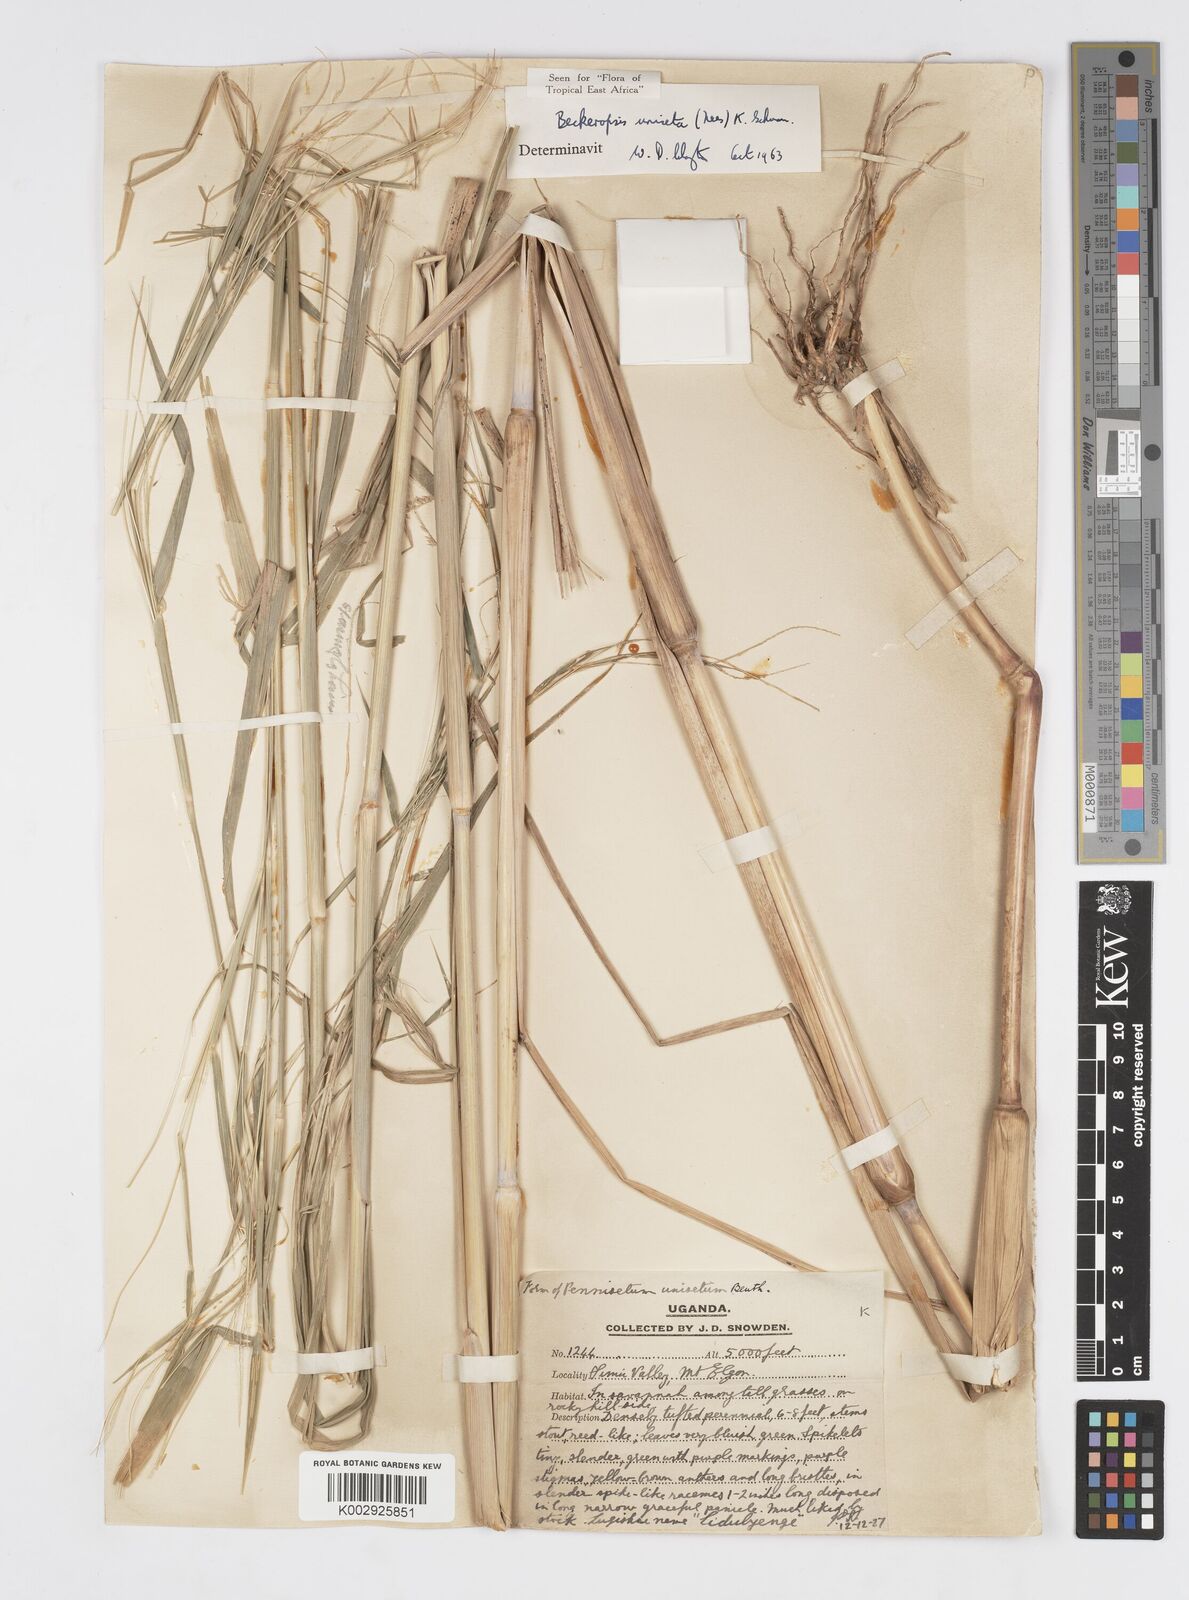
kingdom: Plantae
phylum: Tracheophyta
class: Liliopsida
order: Poales
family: Poaceae
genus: Cenchrus
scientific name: Cenchrus unisetus
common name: Natal grass
